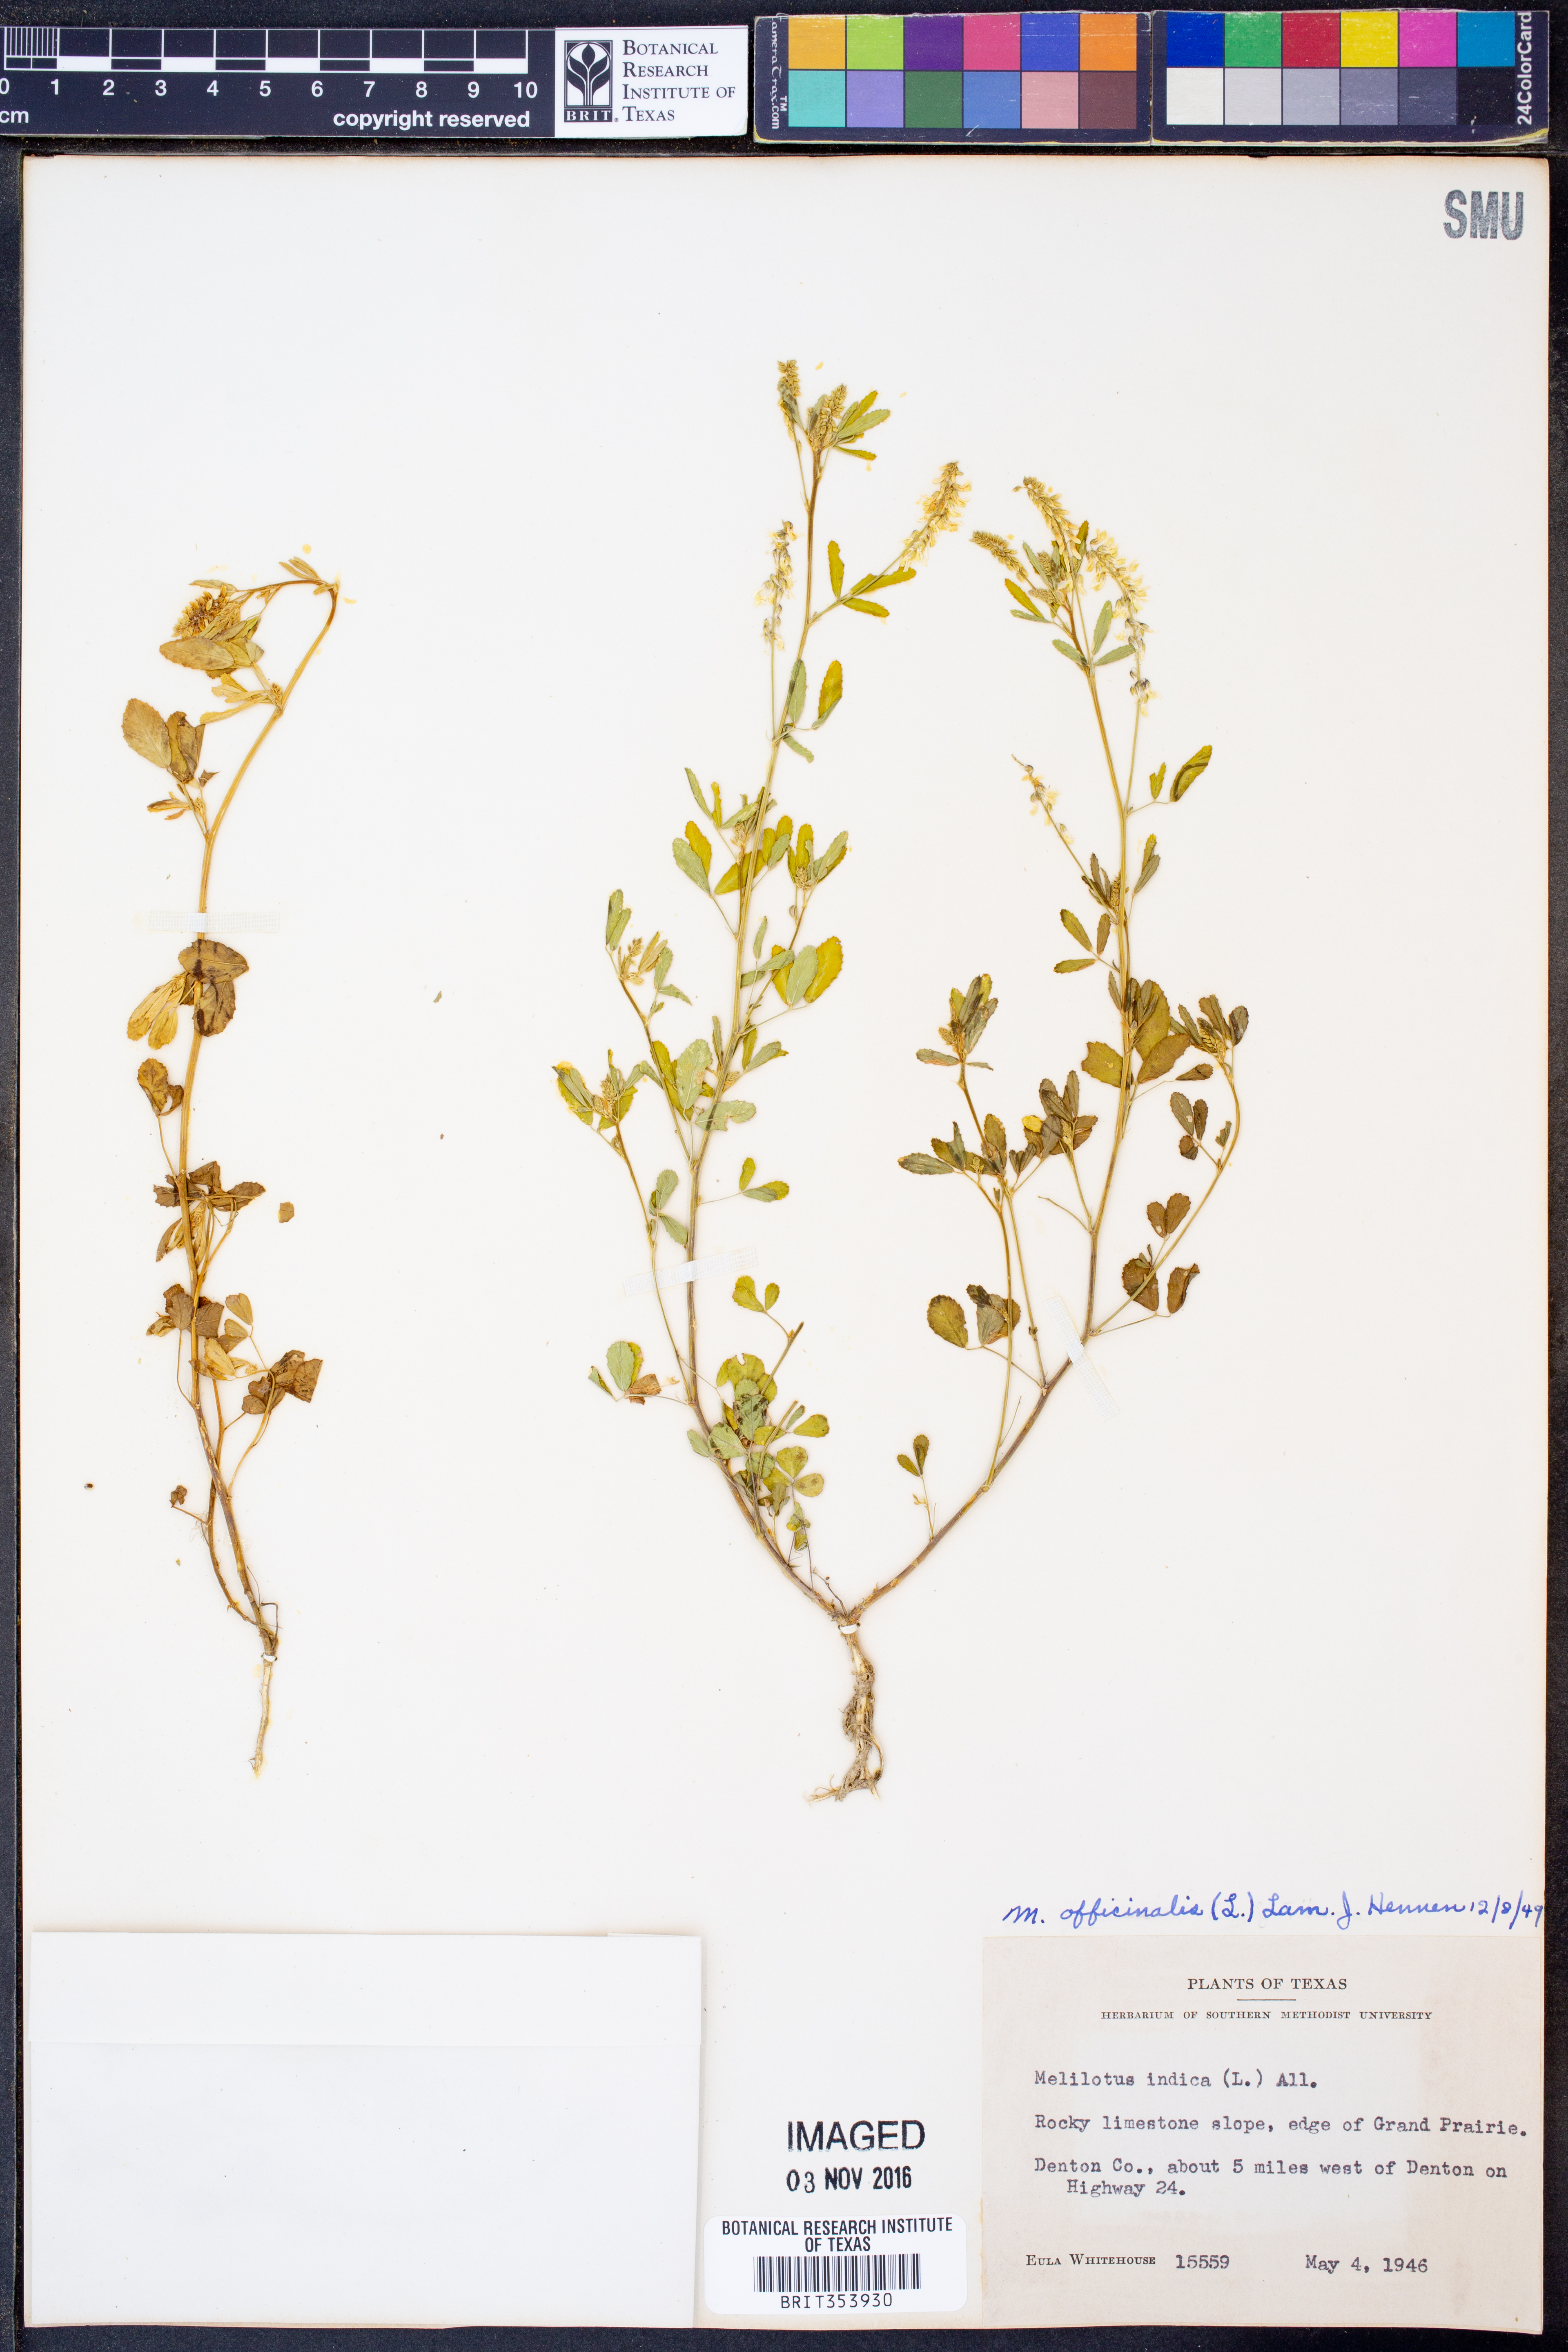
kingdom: Plantae
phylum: Tracheophyta
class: Magnoliopsida
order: Fabales
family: Fabaceae
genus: Melilotus
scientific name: Melilotus officinalis
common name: Sweetclover
